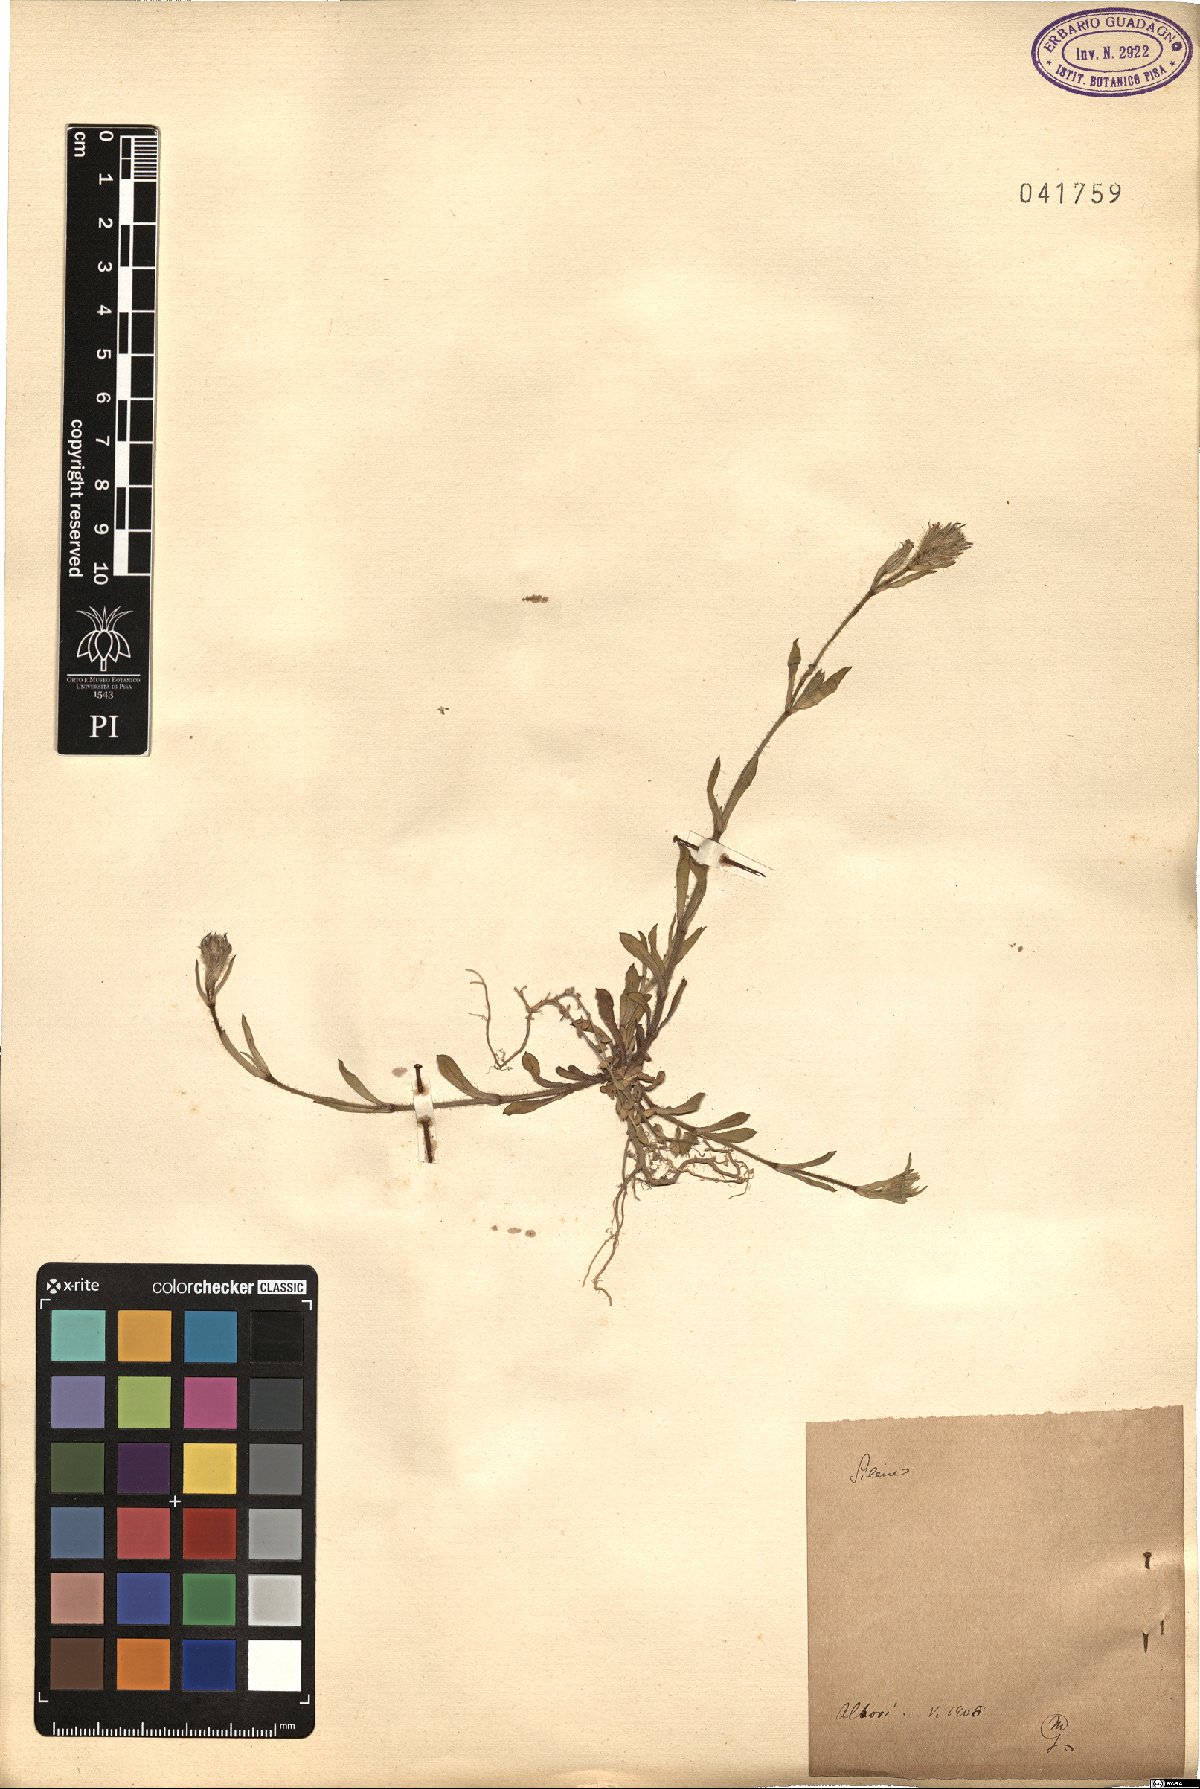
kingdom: Plantae
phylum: Tracheophyta
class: Magnoliopsida
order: Caryophyllales
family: Caryophyllaceae
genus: Silene
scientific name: Silene
